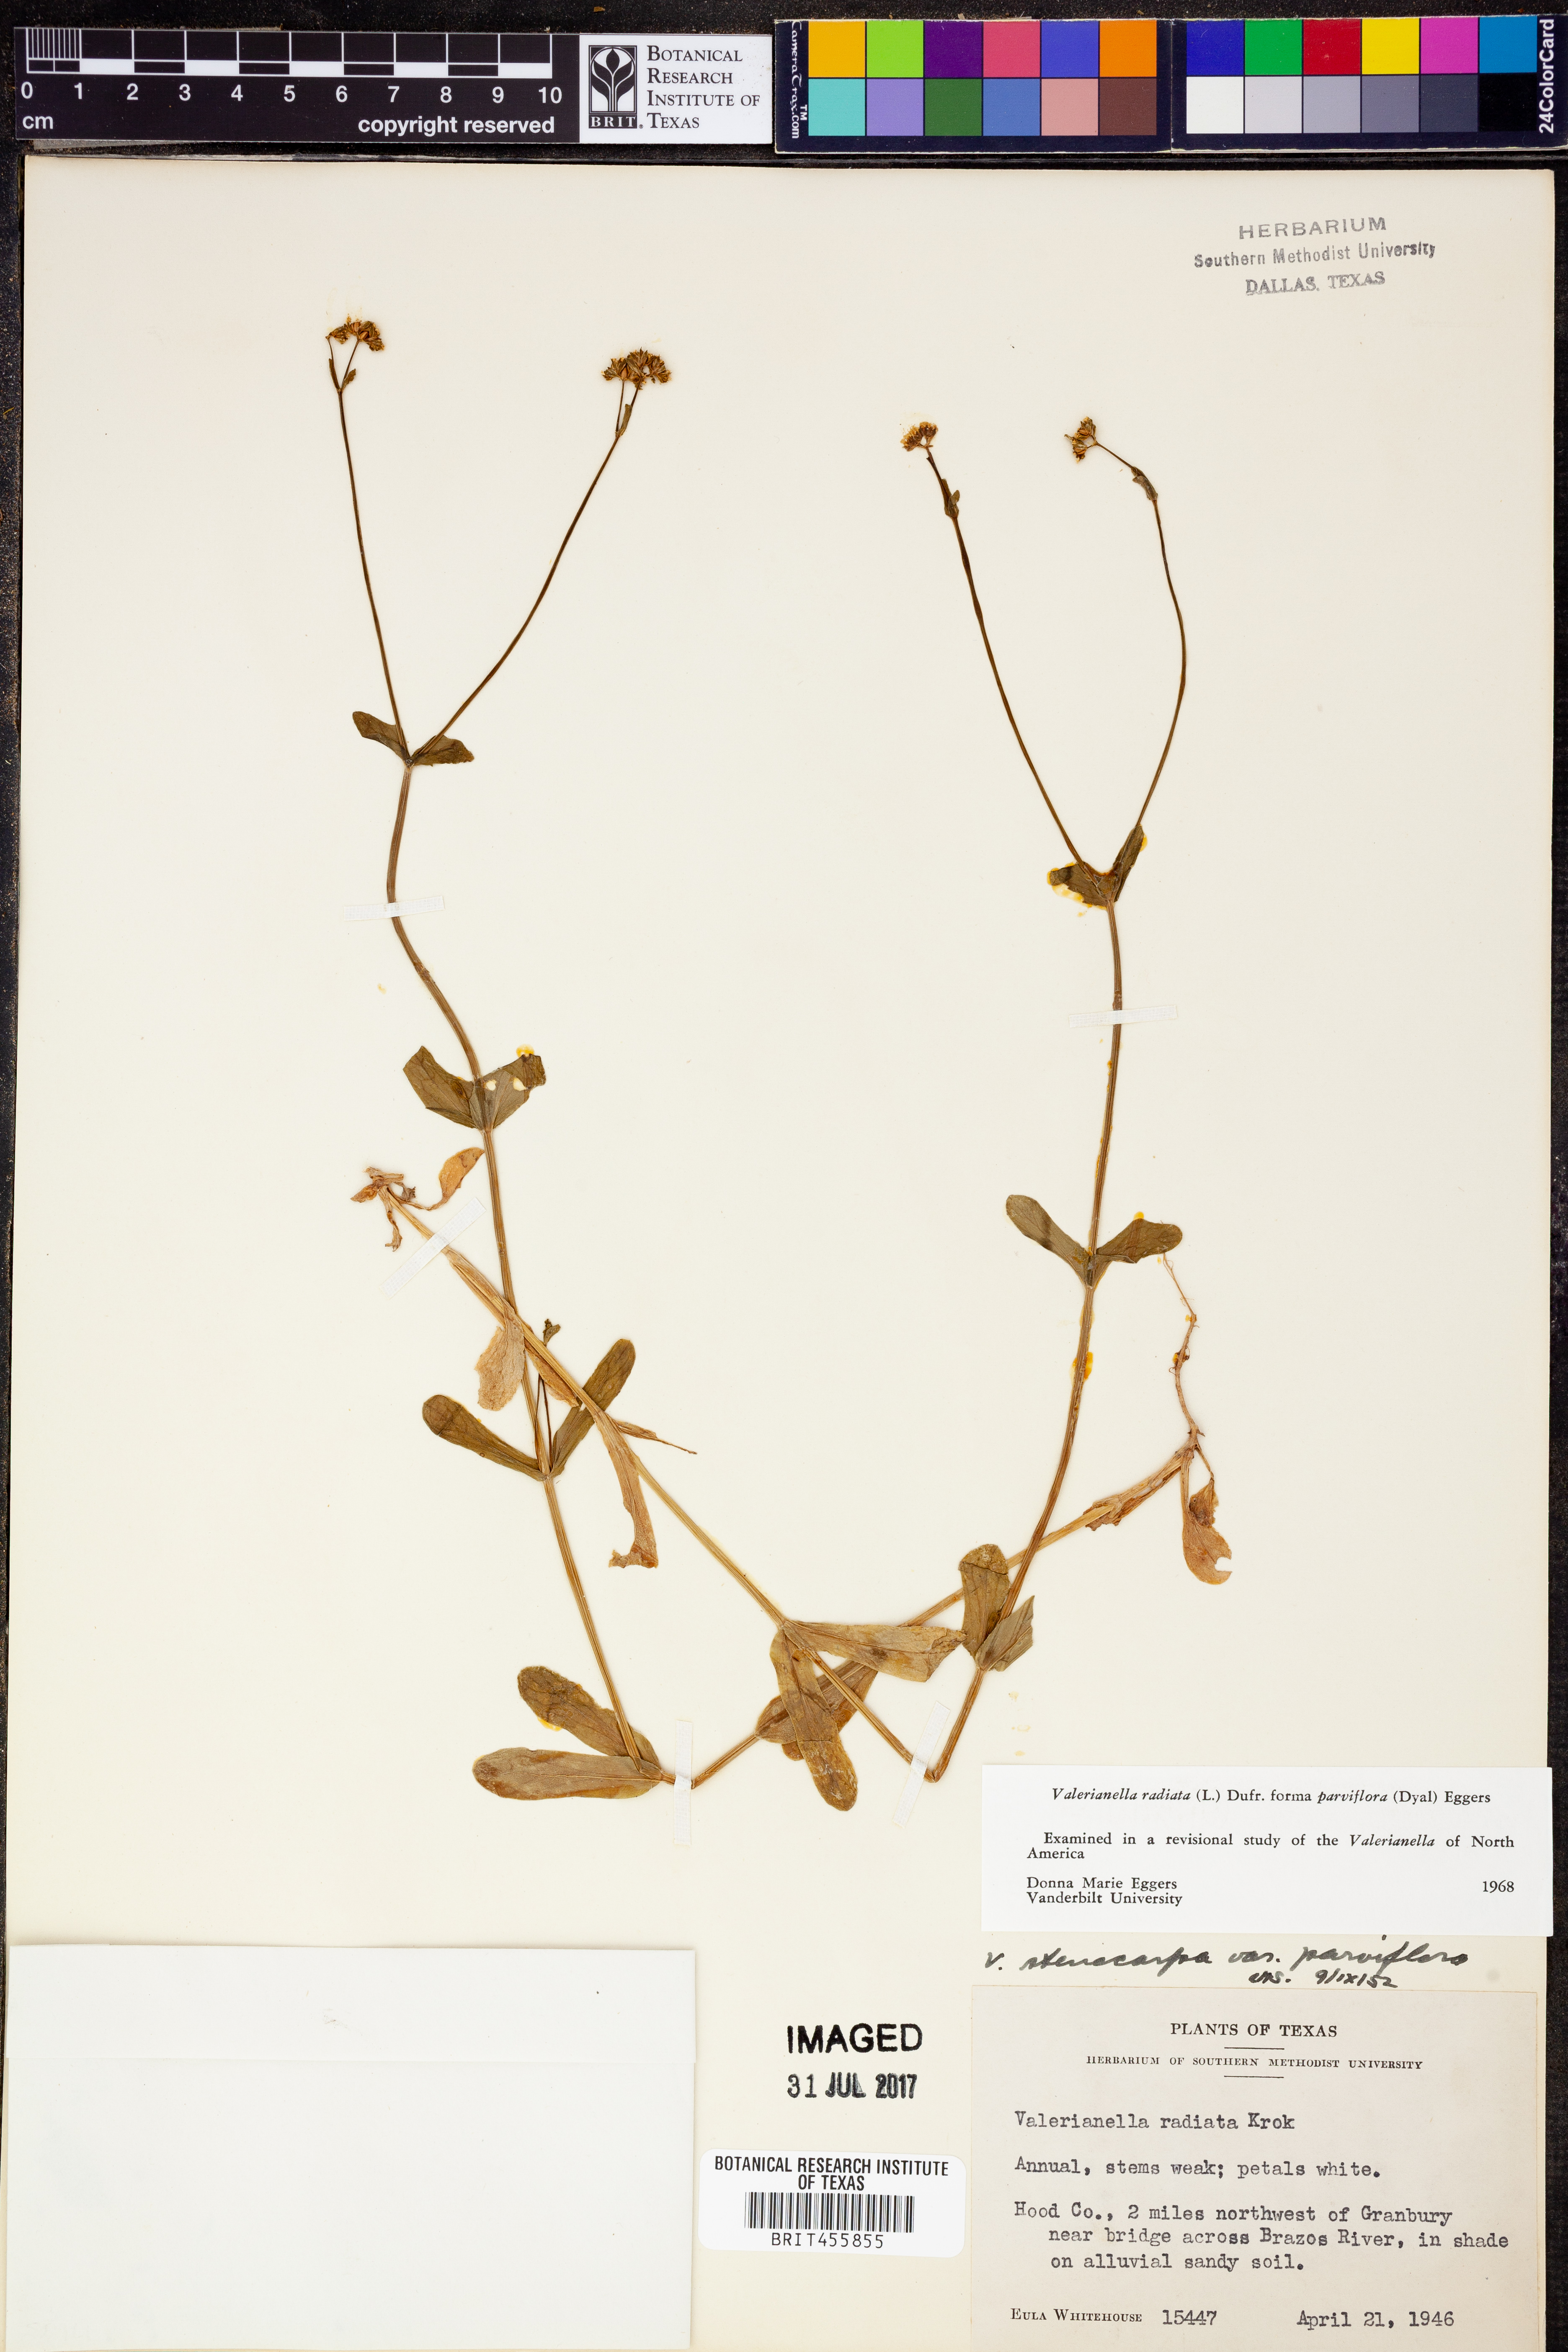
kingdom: Plantae
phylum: Tracheophyta
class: Magnoliopsida
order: Dipsacales
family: Caprifoliaceae
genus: Valerianella
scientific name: Valerianella radiata
